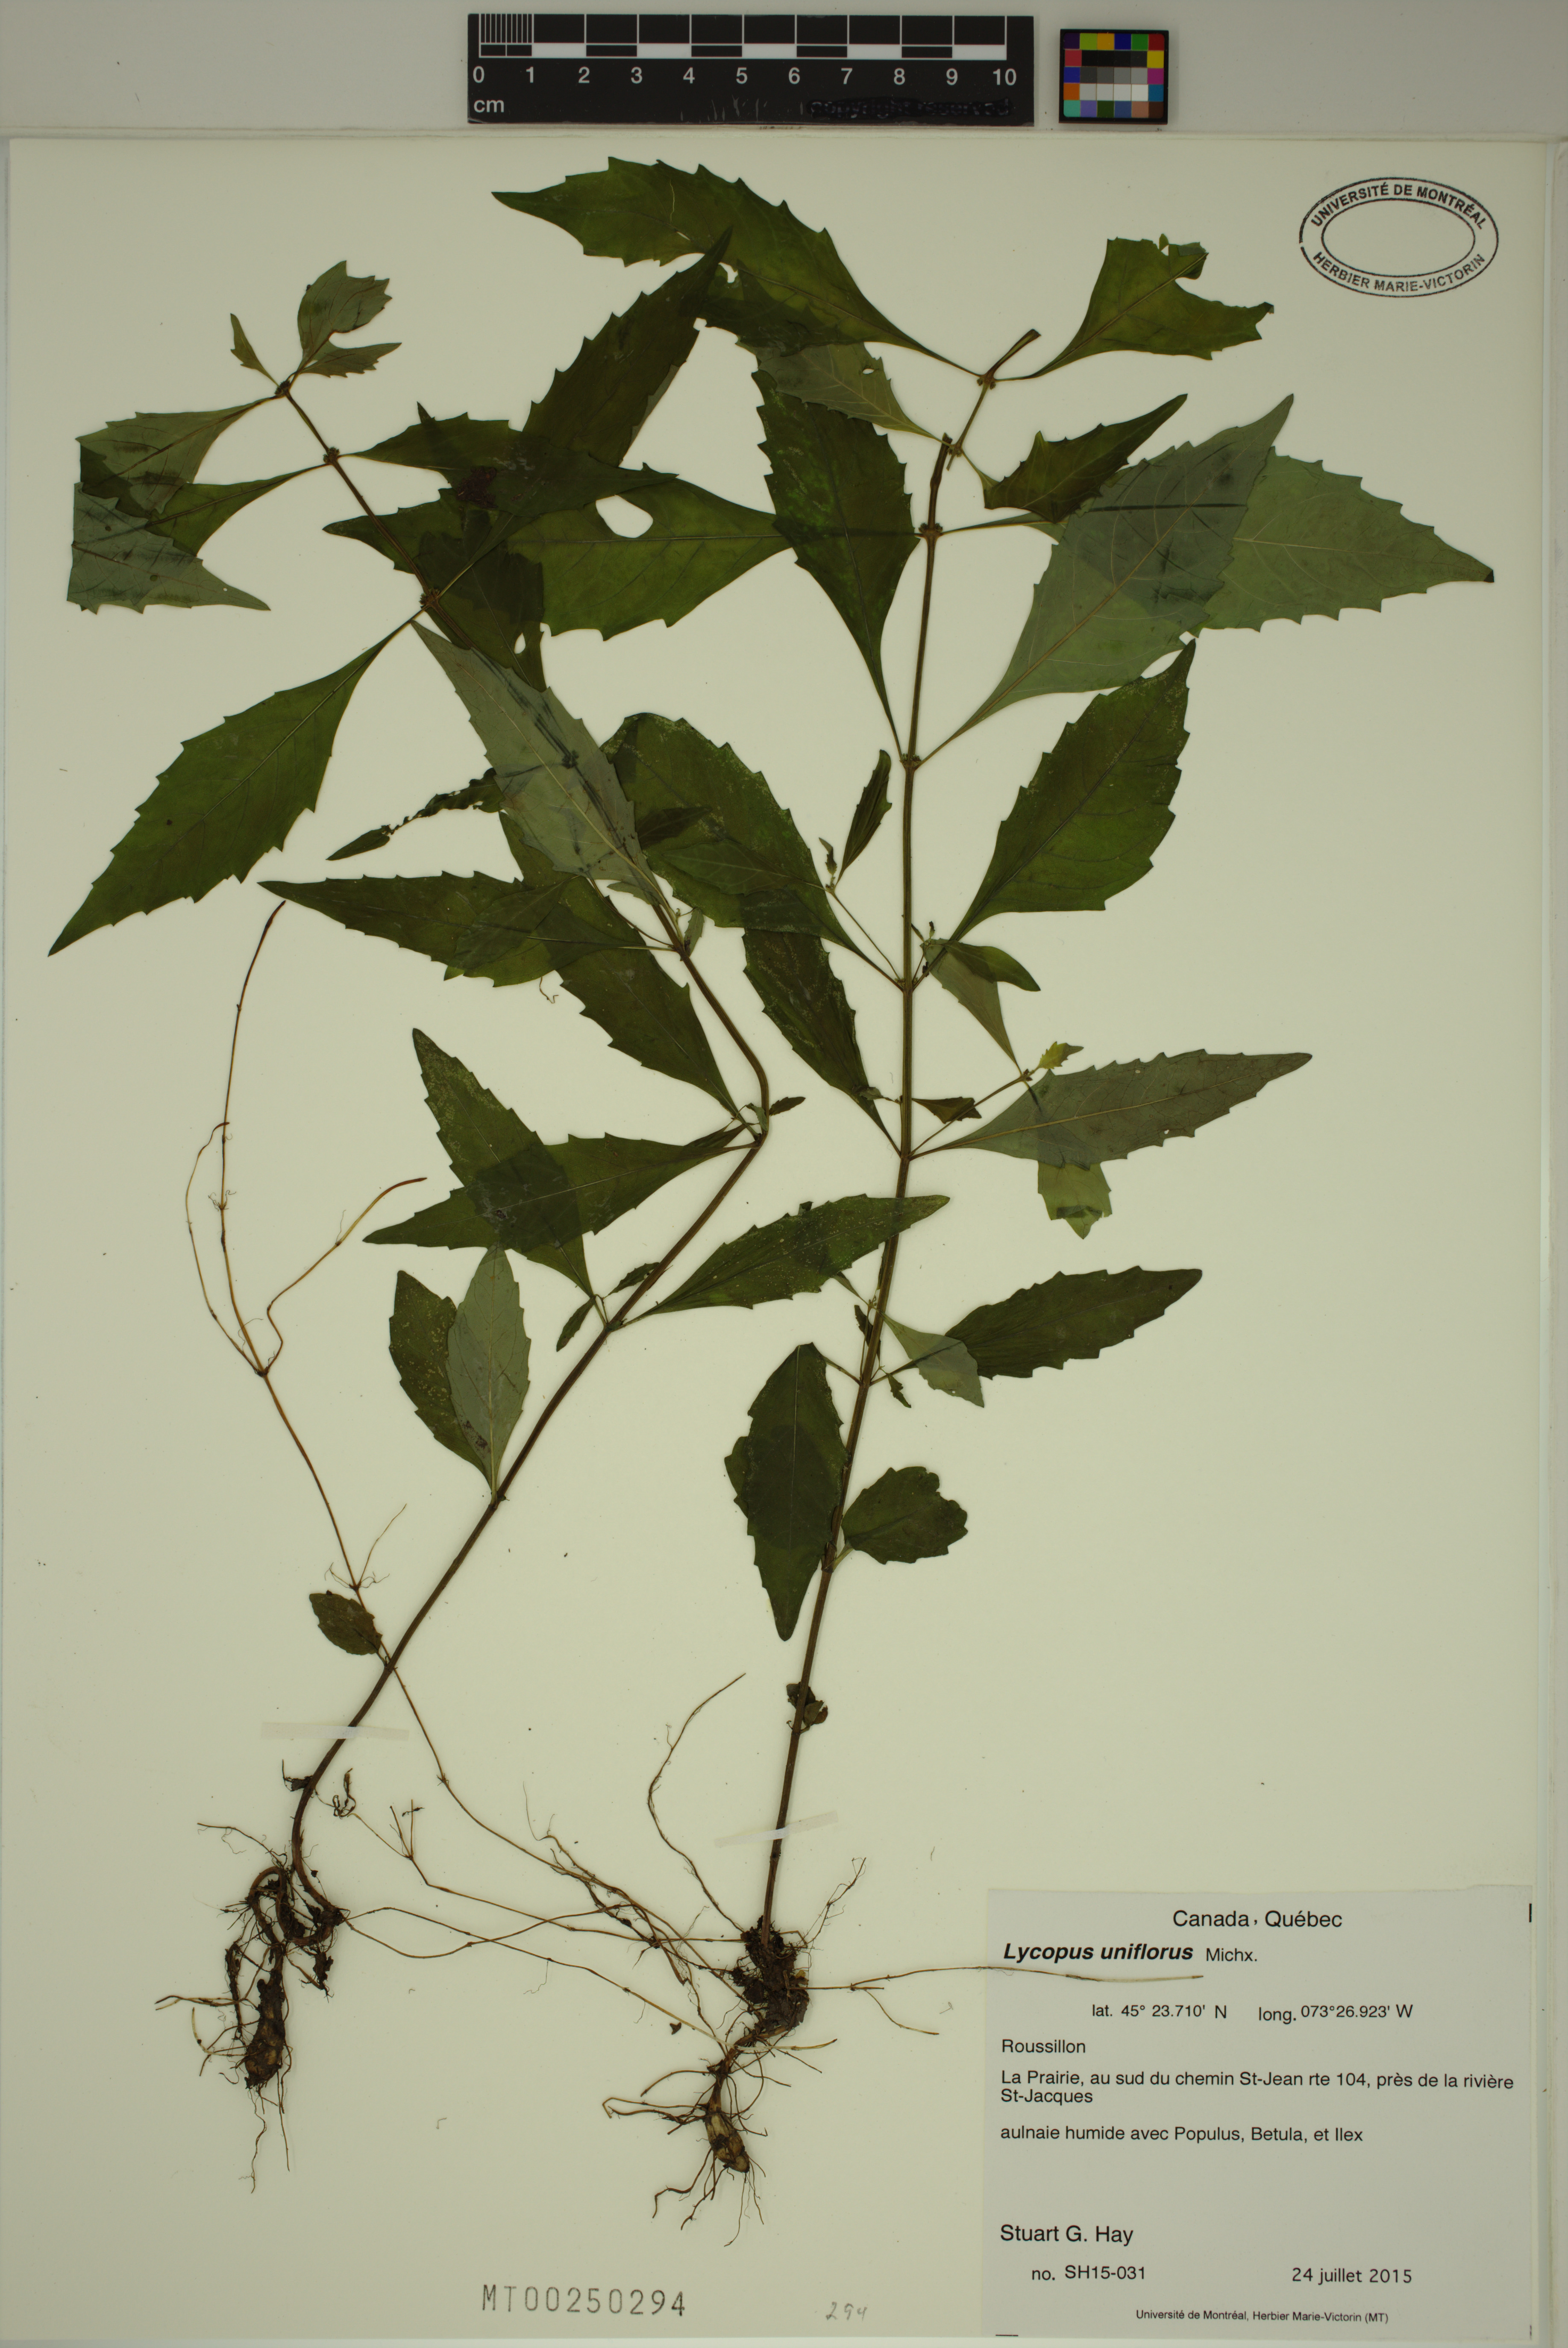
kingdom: Plantae
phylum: Tracheophyta
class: Magnoliopsida
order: Lamiales
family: Lamiaceae
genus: Lycopus
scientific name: Lycopus uniflorus
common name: Northern bugleweed
